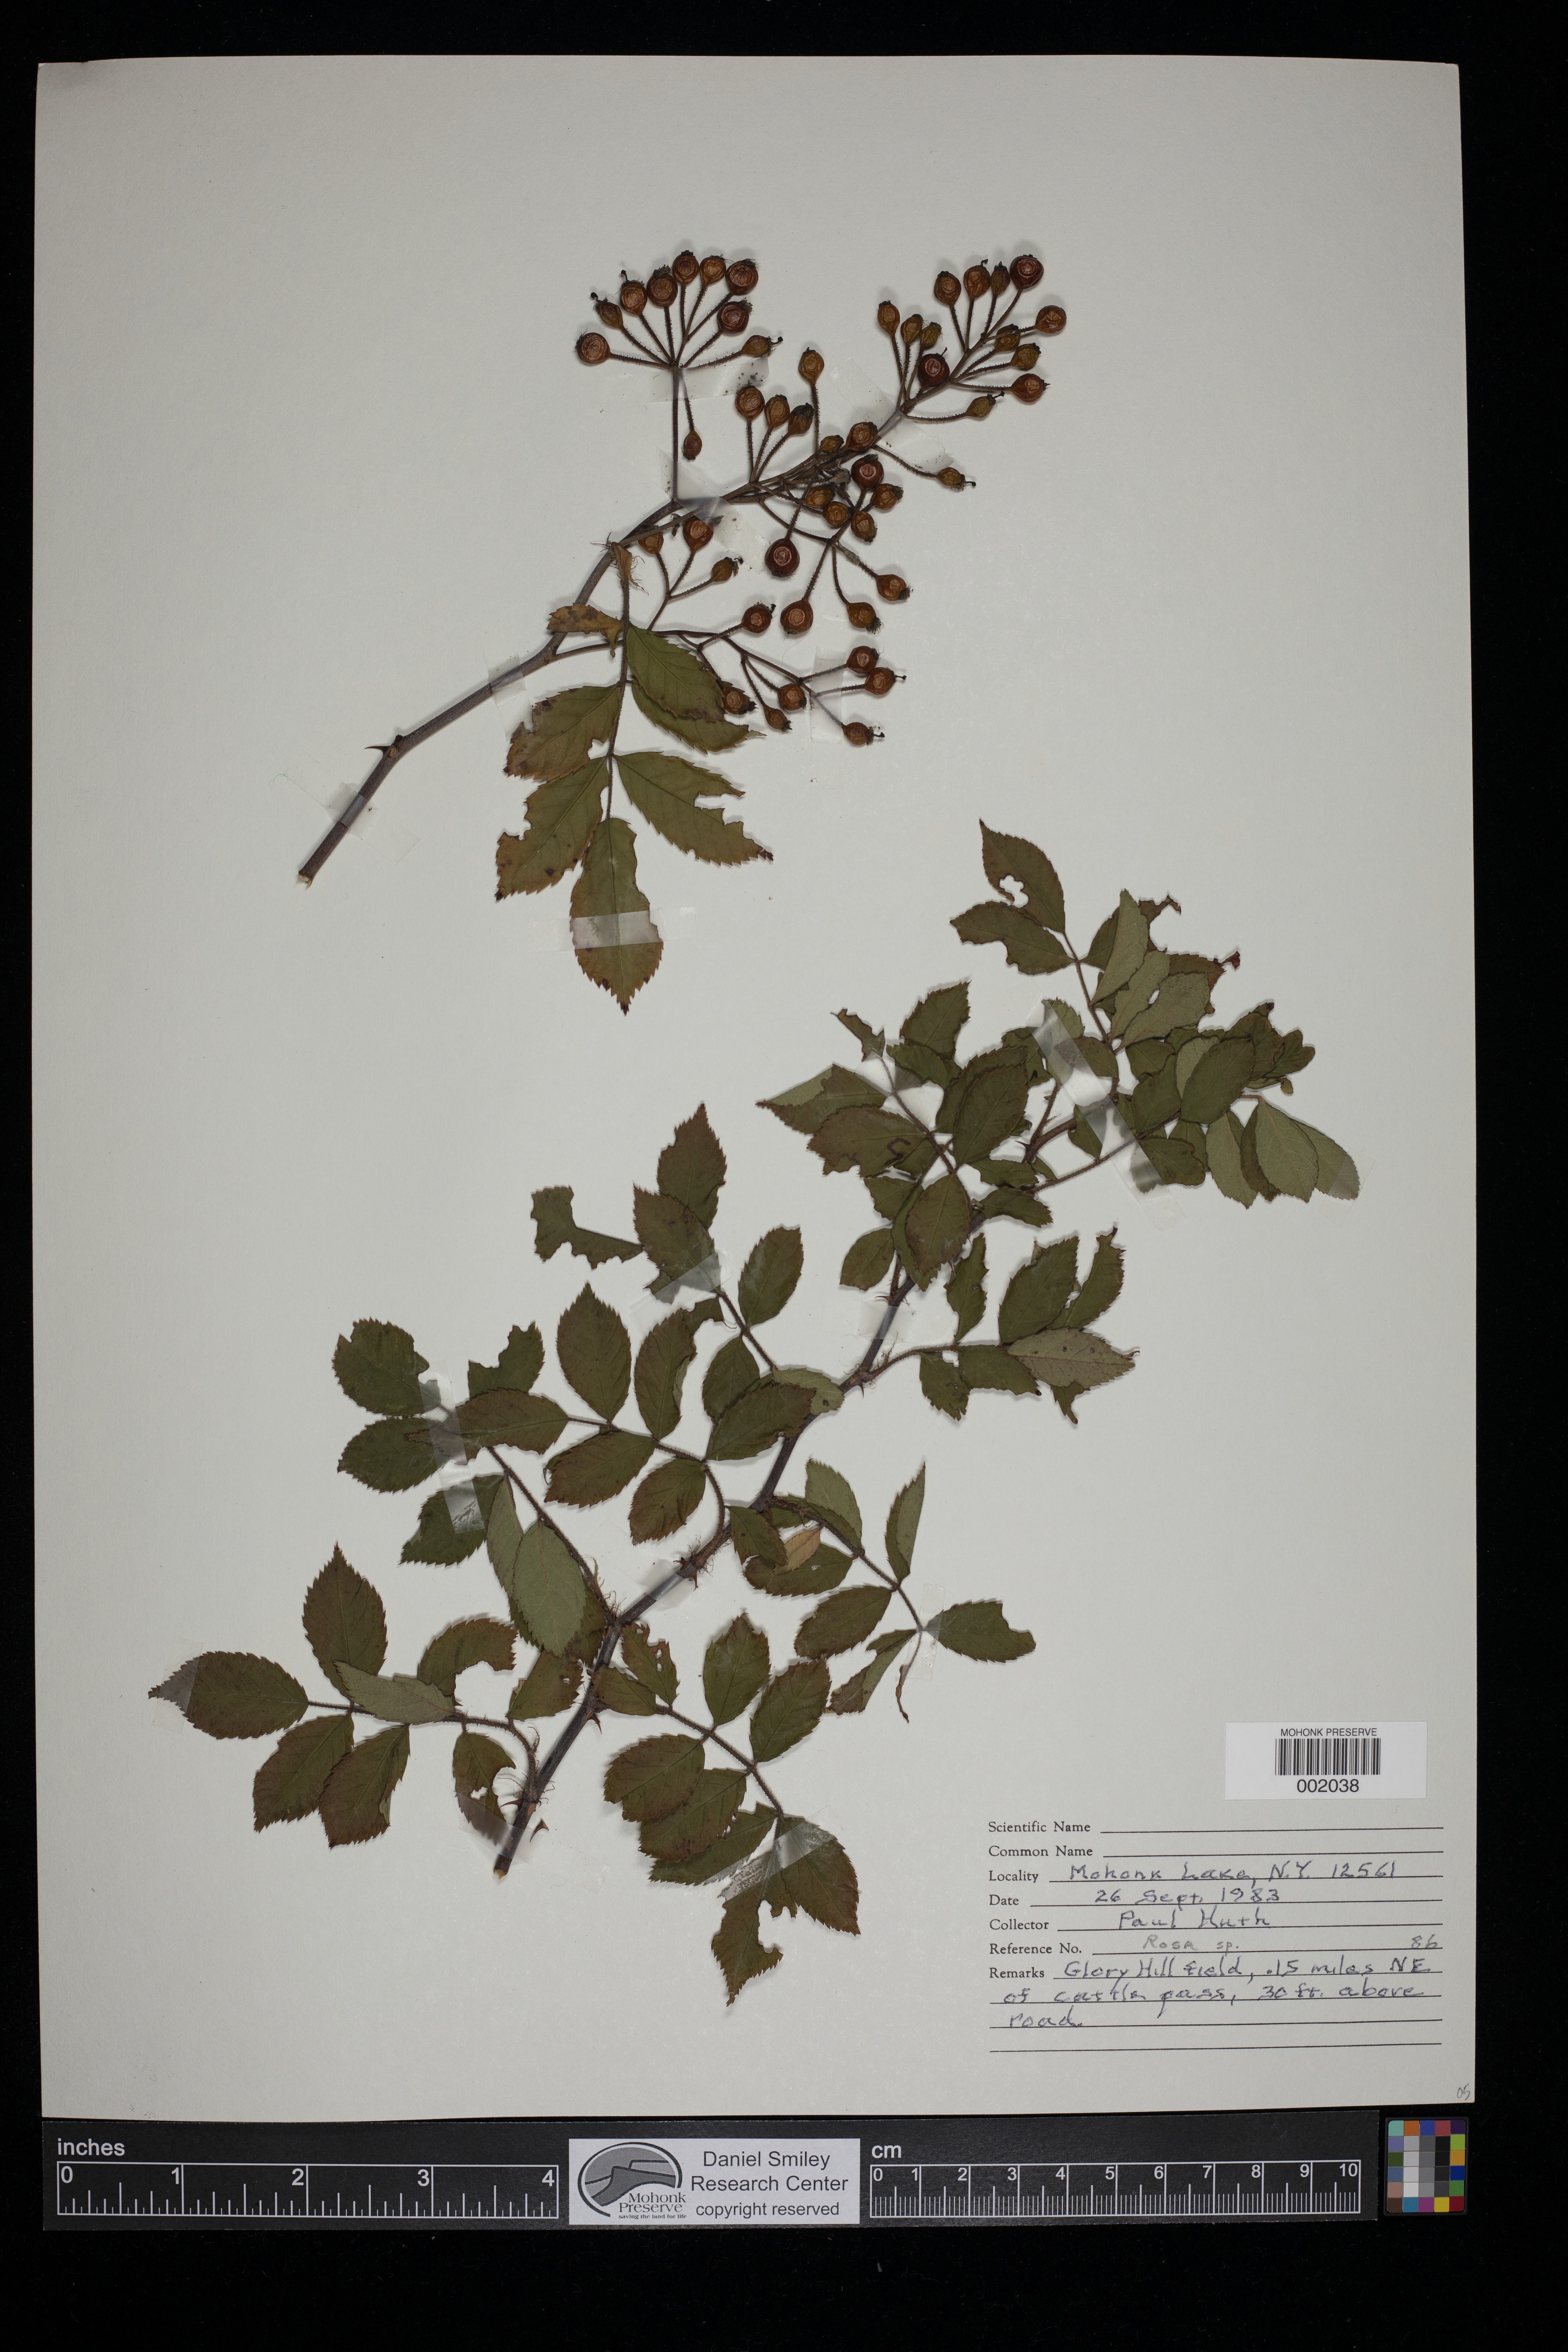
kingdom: Plantae
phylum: Tracheophyta
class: Magnoliopsida
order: Rosales
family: Rosaceae
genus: Rosa
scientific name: Rosa
